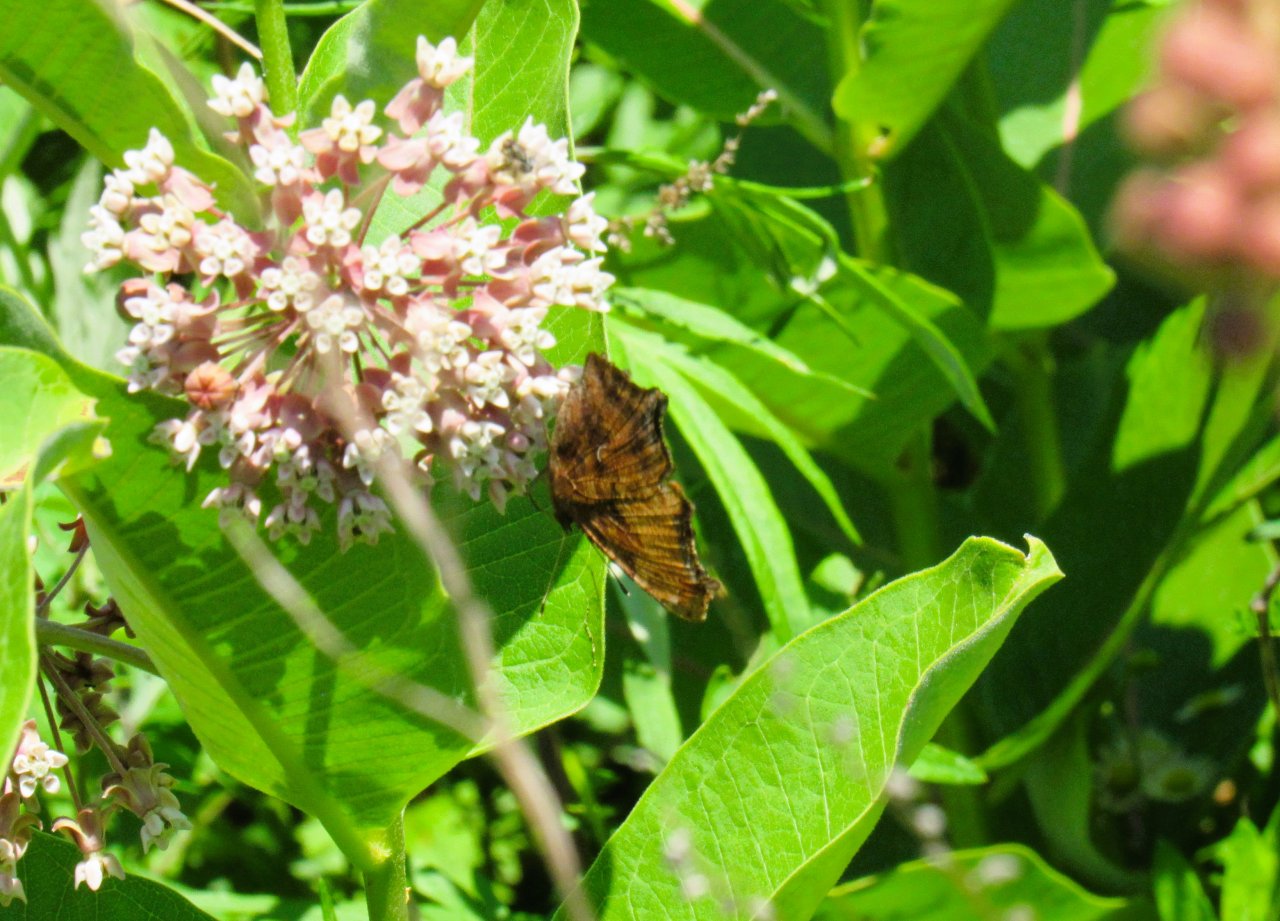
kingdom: Animalia
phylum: Arthropoda
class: Insecta
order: Lepidoptera
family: Nymphalidae
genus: Polygonia
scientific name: Polygonia comma
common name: Eastern Comma
